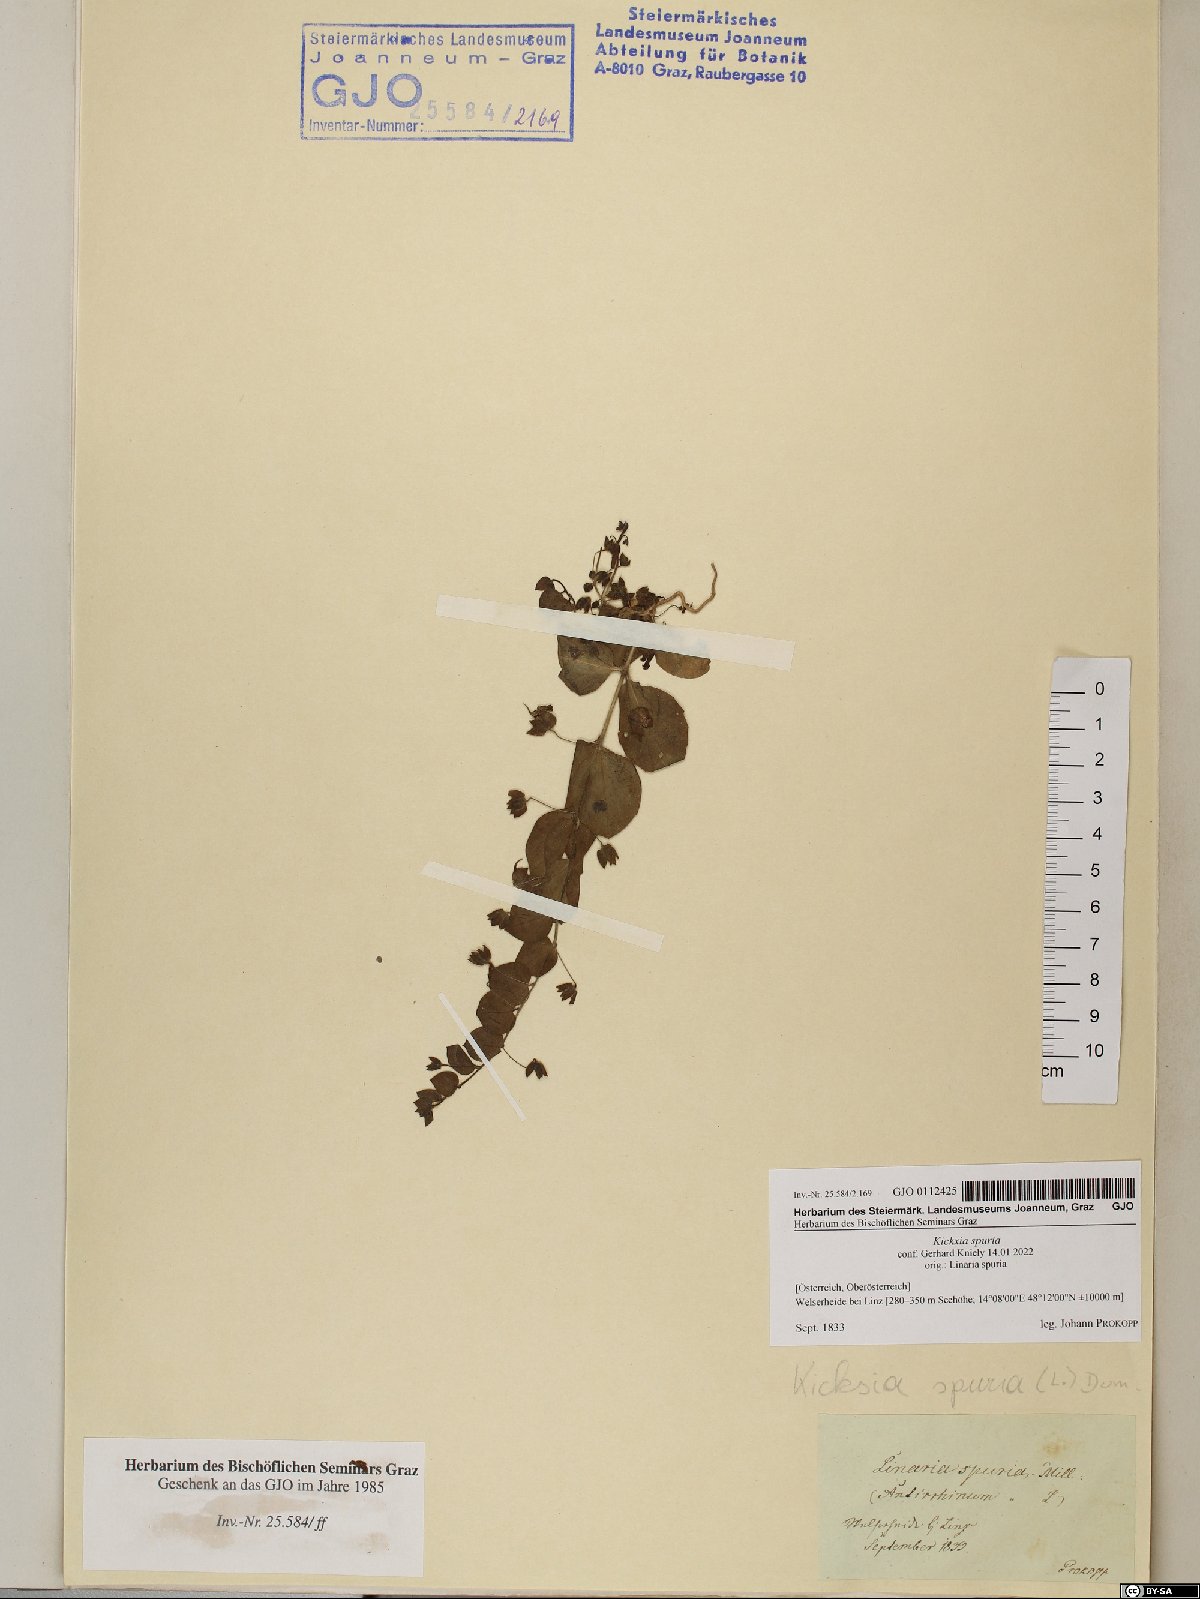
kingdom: Plantae
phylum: Tracheophyta
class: Magnoliopsida
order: Lamiales
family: Plantaginaceae
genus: Kickxia
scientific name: Kickxia spuria
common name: Round-leaved fluellen
